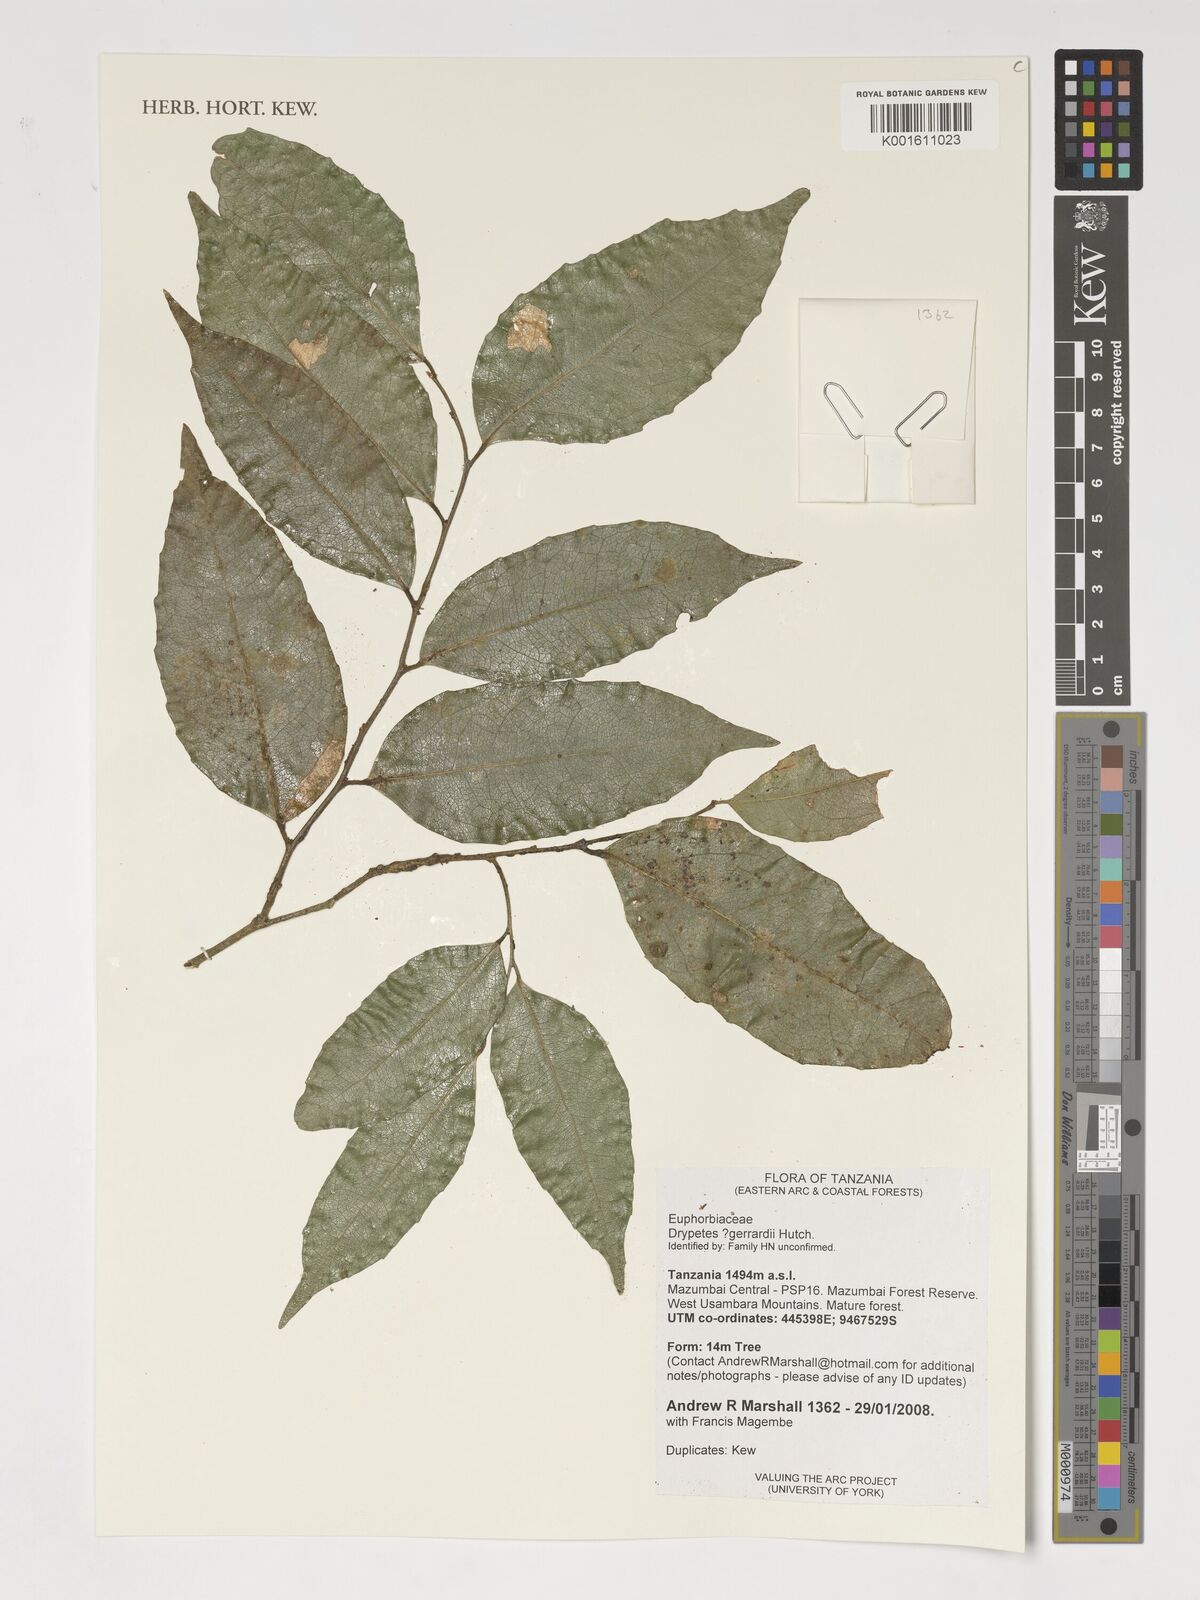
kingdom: Plantae
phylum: Tracheophyta
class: Magnoliopsida
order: Malpighiales
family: Putranjivaceae
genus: Drypetes
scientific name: Drypetes gerrardii
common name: Forest ironplum
